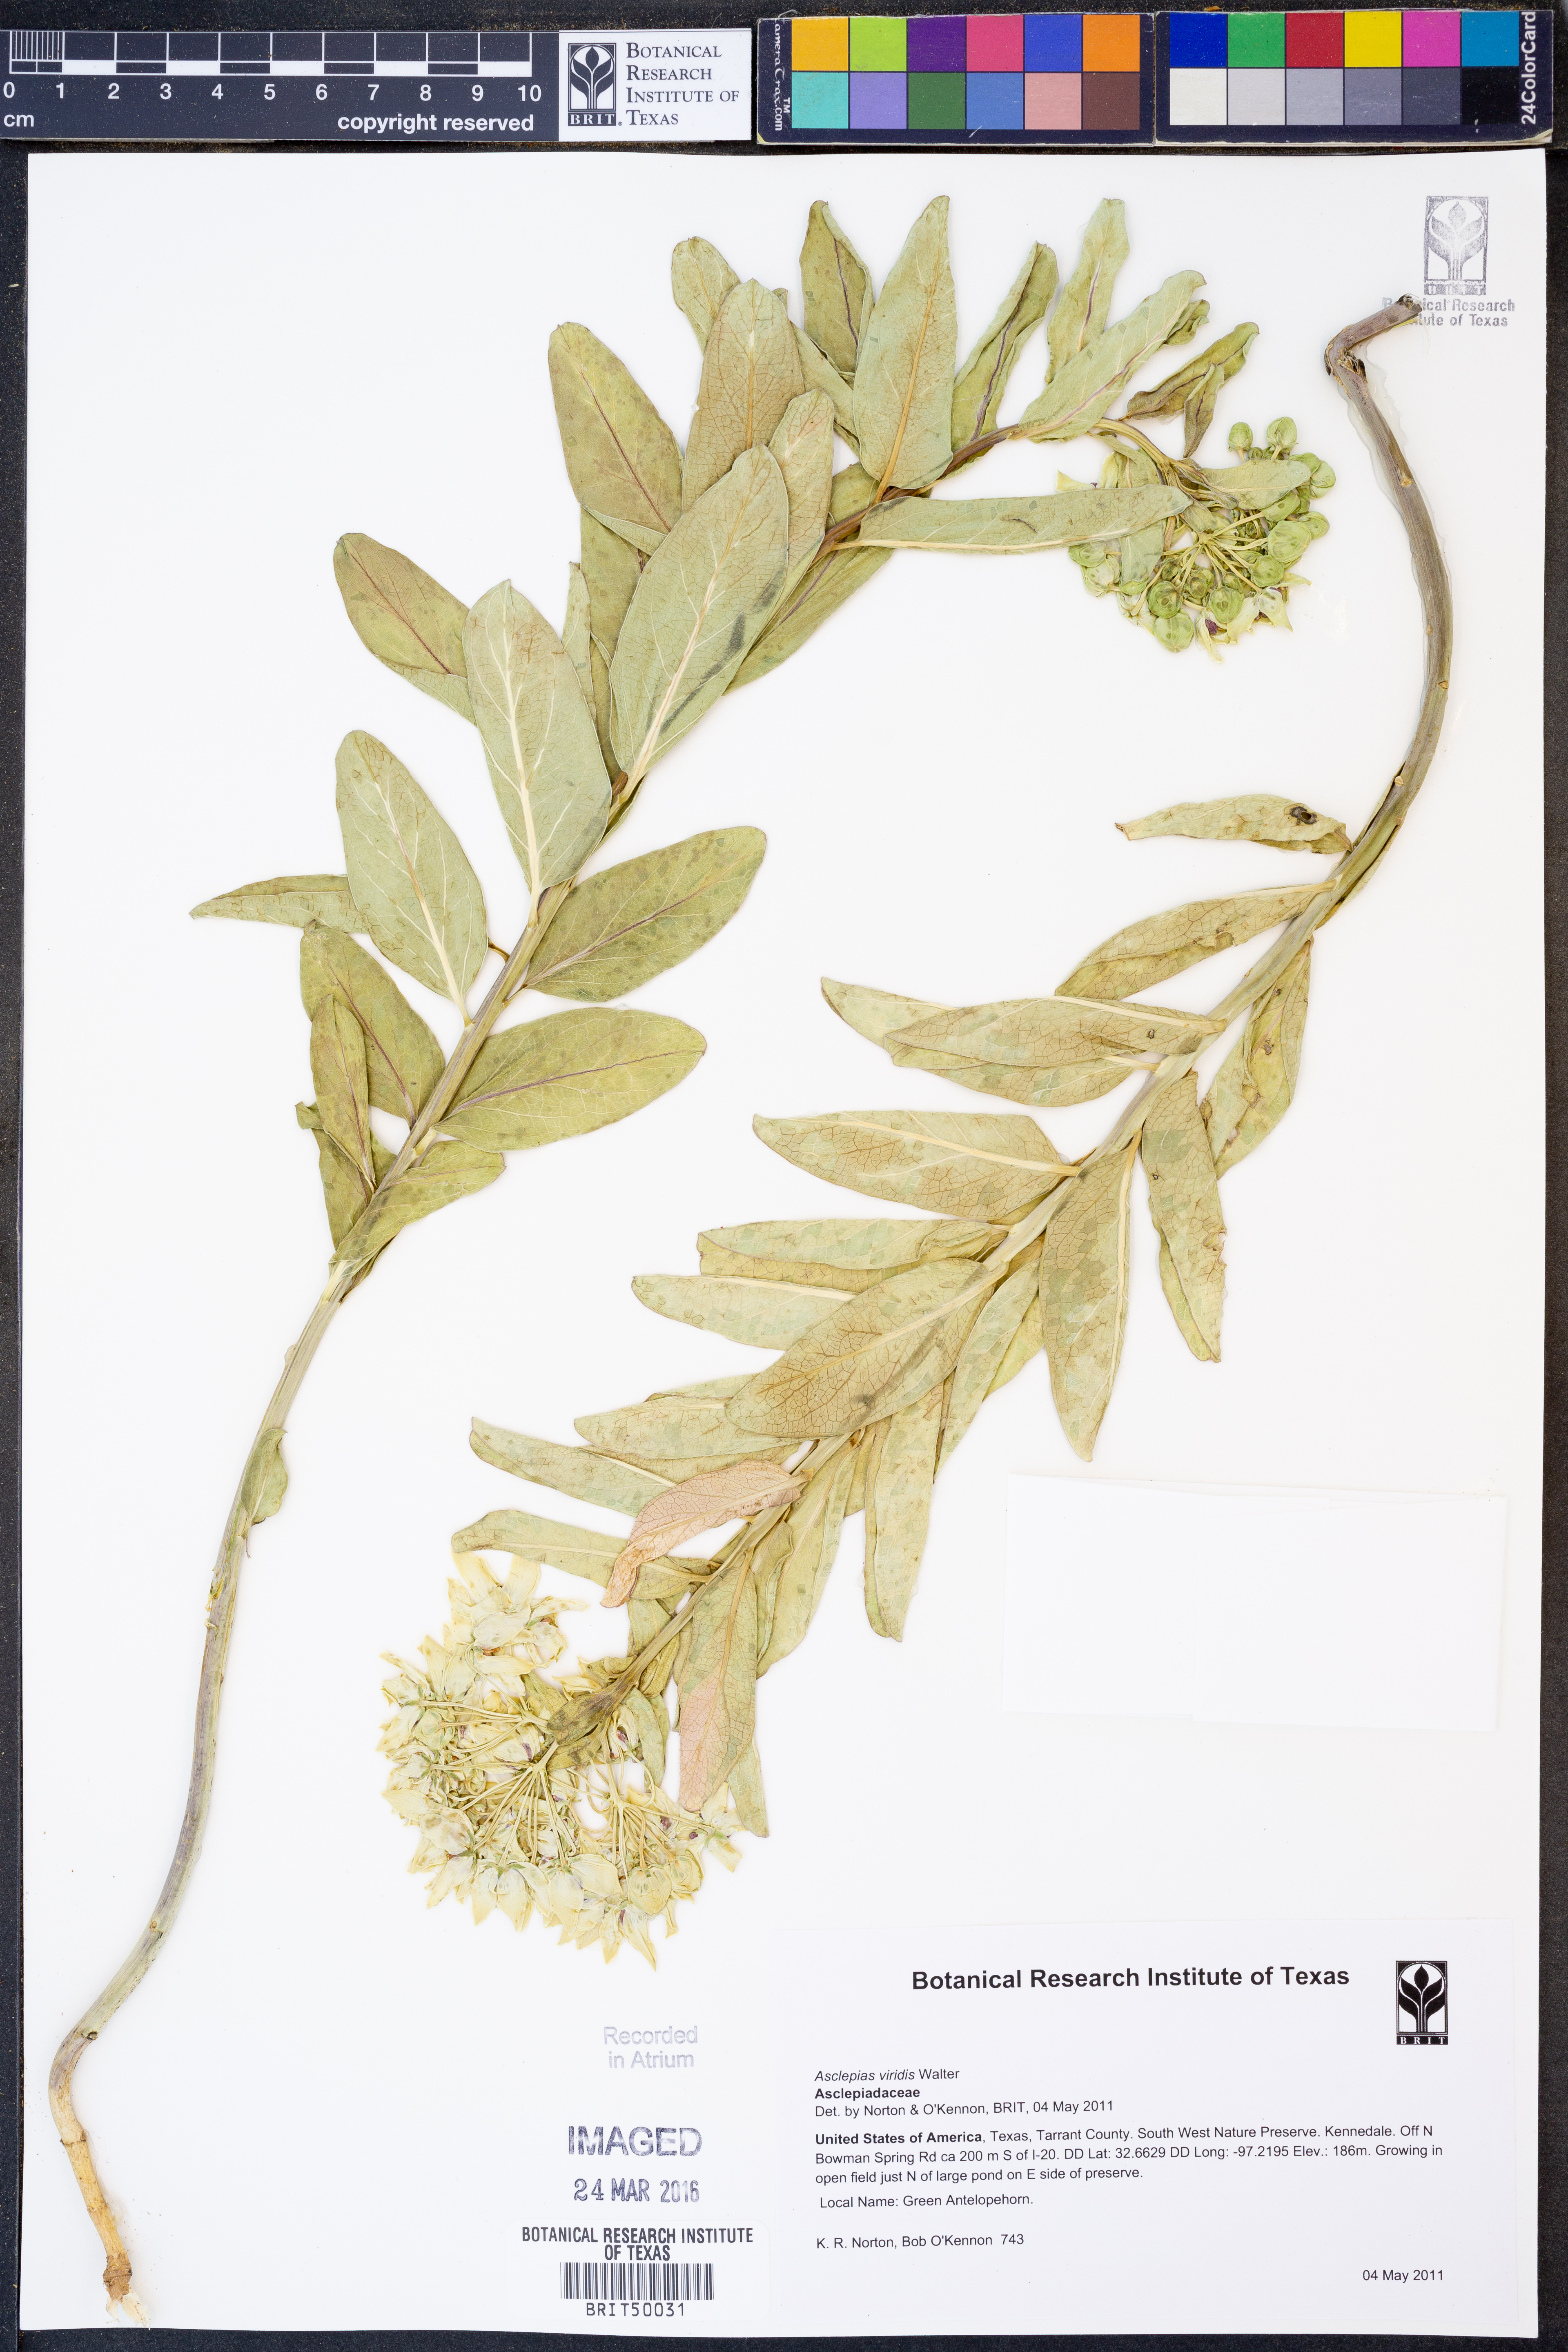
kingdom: Plantae
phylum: Tracheophyta
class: Magnoliopsida
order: Gentianales
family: Apocynaceae
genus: Asclepias
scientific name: Asclepias viridis
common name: Antelope-horns
